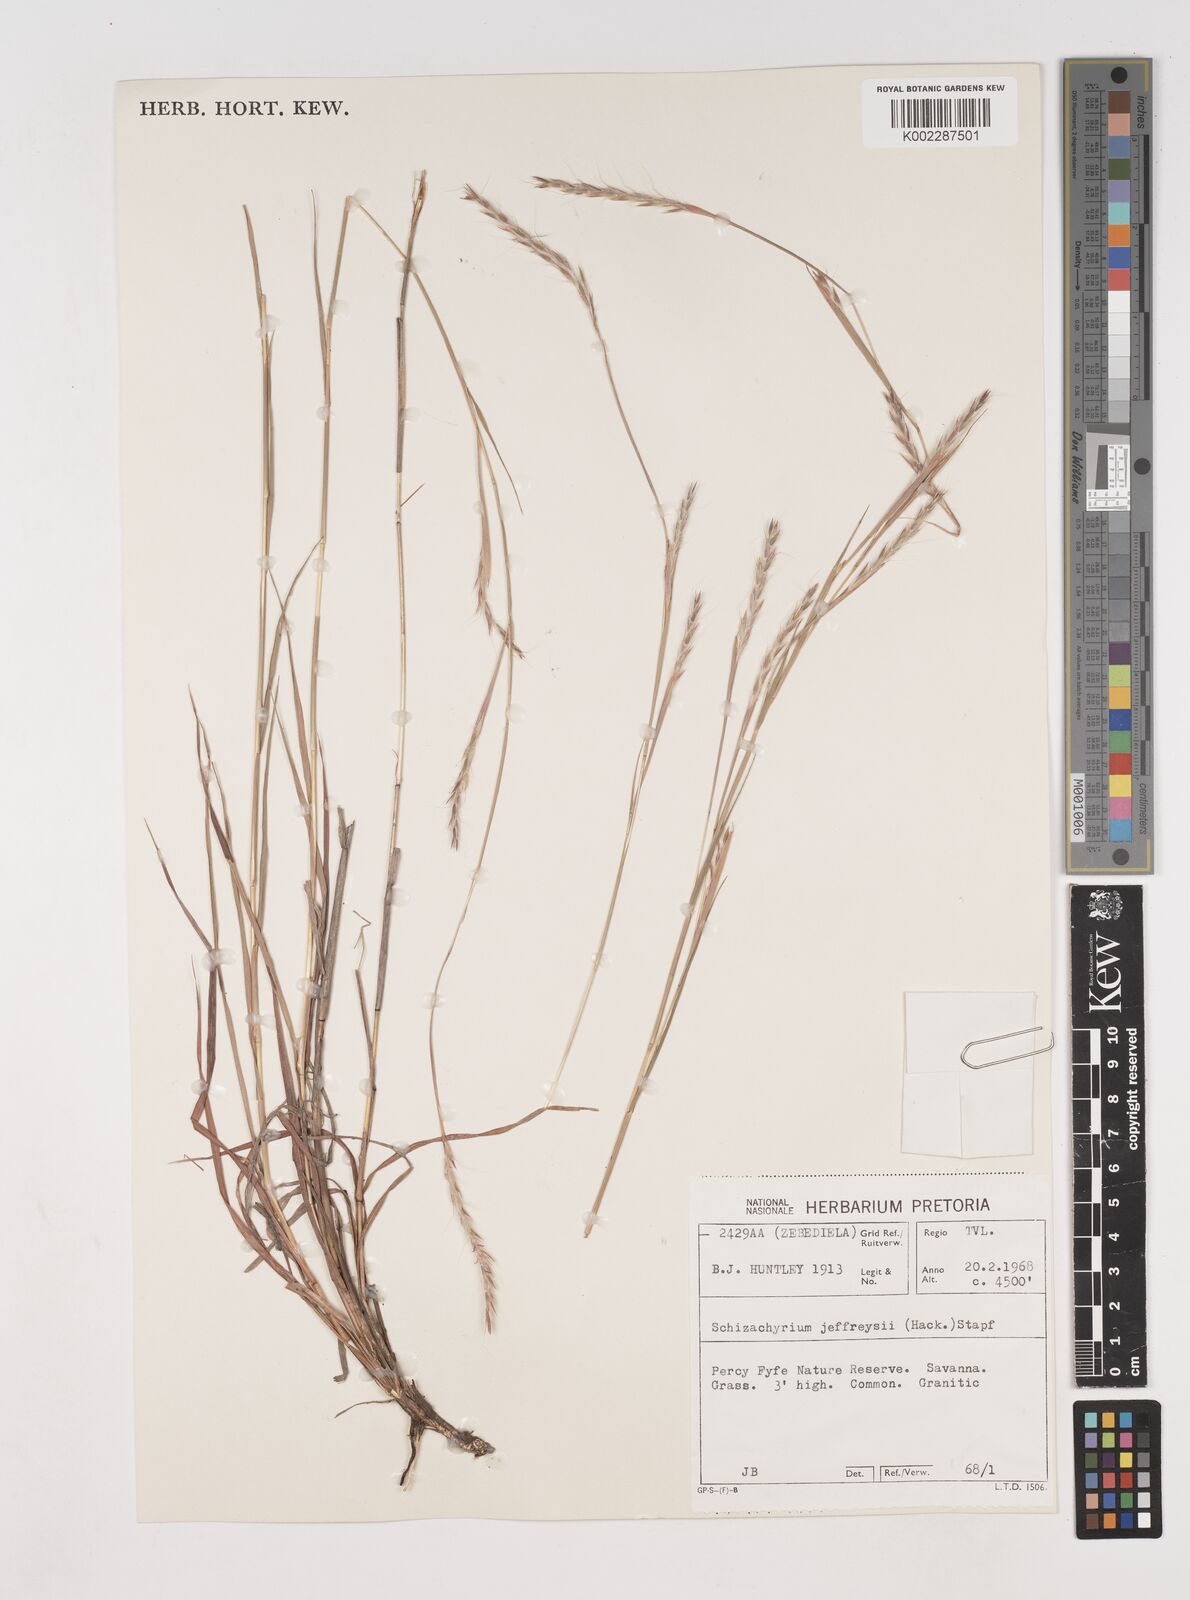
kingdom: Plantae
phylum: Tracheophyta
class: Liliopsida
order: Poales
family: Poaceae
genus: Schizachyrium
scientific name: Schizachyrium jeffreysii
